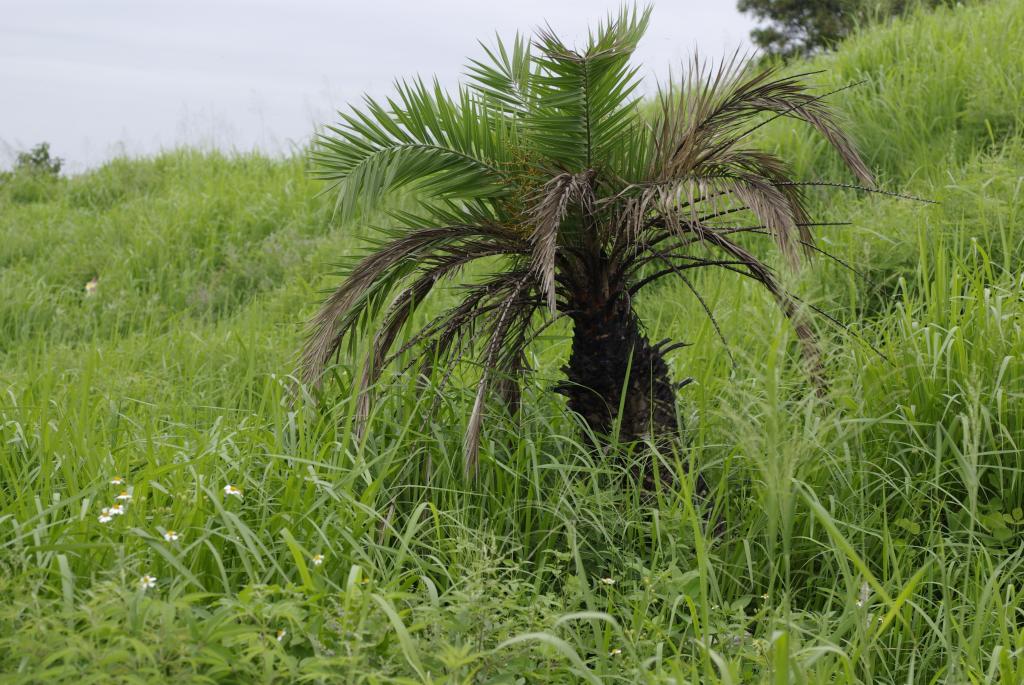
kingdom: Plantae
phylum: Tracheophyta
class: Liliopsida
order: Arecales
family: Arecaceae
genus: Phoenix
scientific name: Phoenix loureiroi
